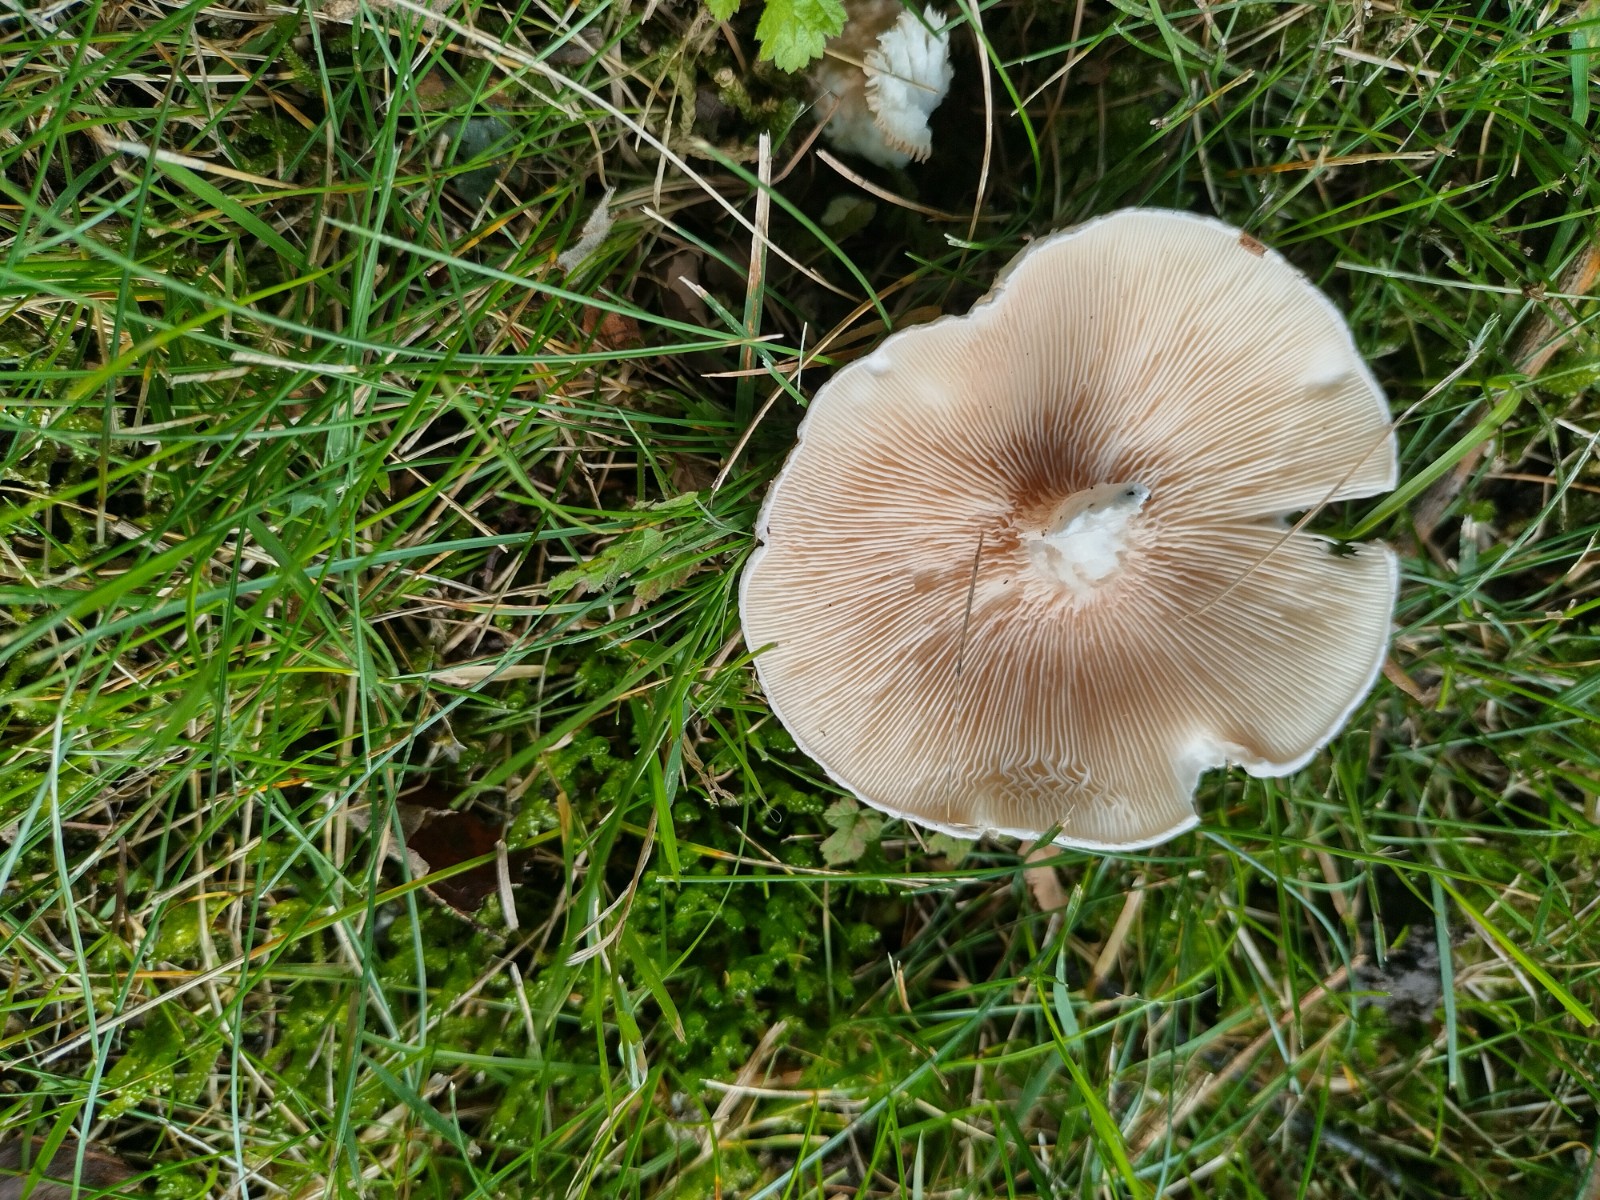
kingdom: Fungi
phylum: Basidiomycota
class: Agaricomycetes
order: Agaricales
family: Entolomataceae
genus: Clitopilus
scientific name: Clitopilus prunulus
